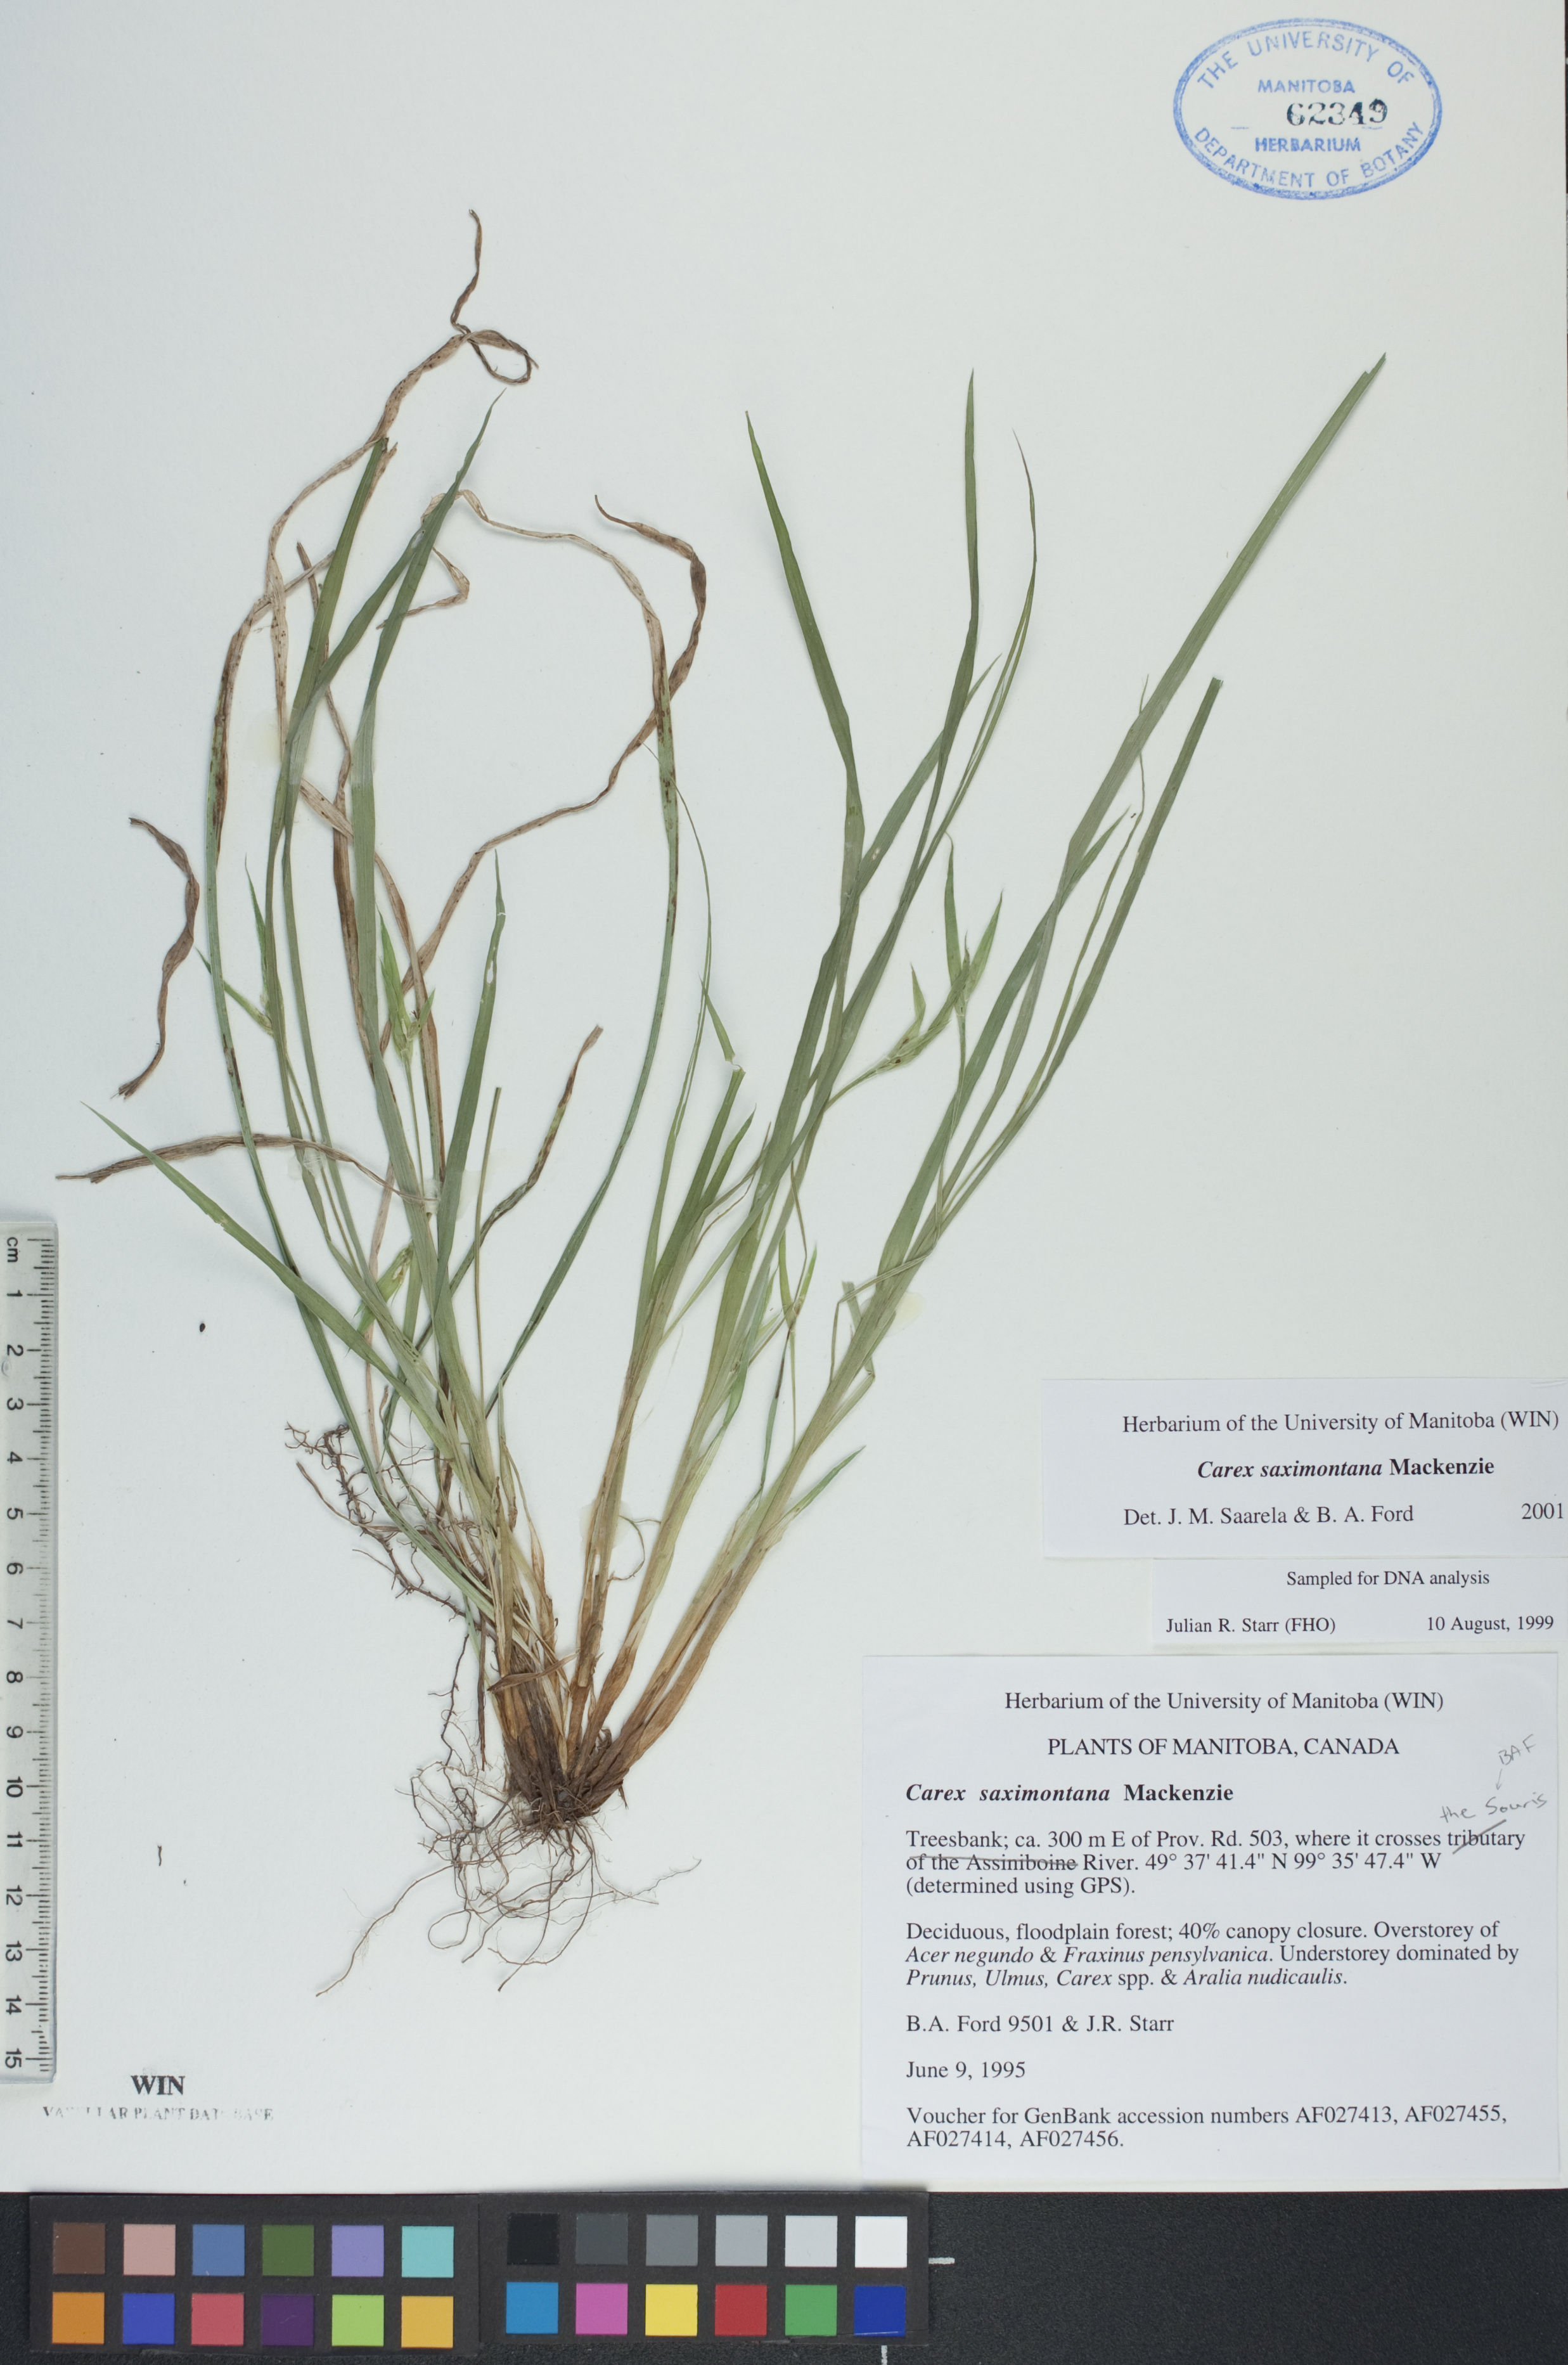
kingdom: Plantae
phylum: Tracheophyta
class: Liliopsida
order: Poales
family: Cyperaceae
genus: Carex
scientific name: Carex saximontana
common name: Rocky mountain sedge
